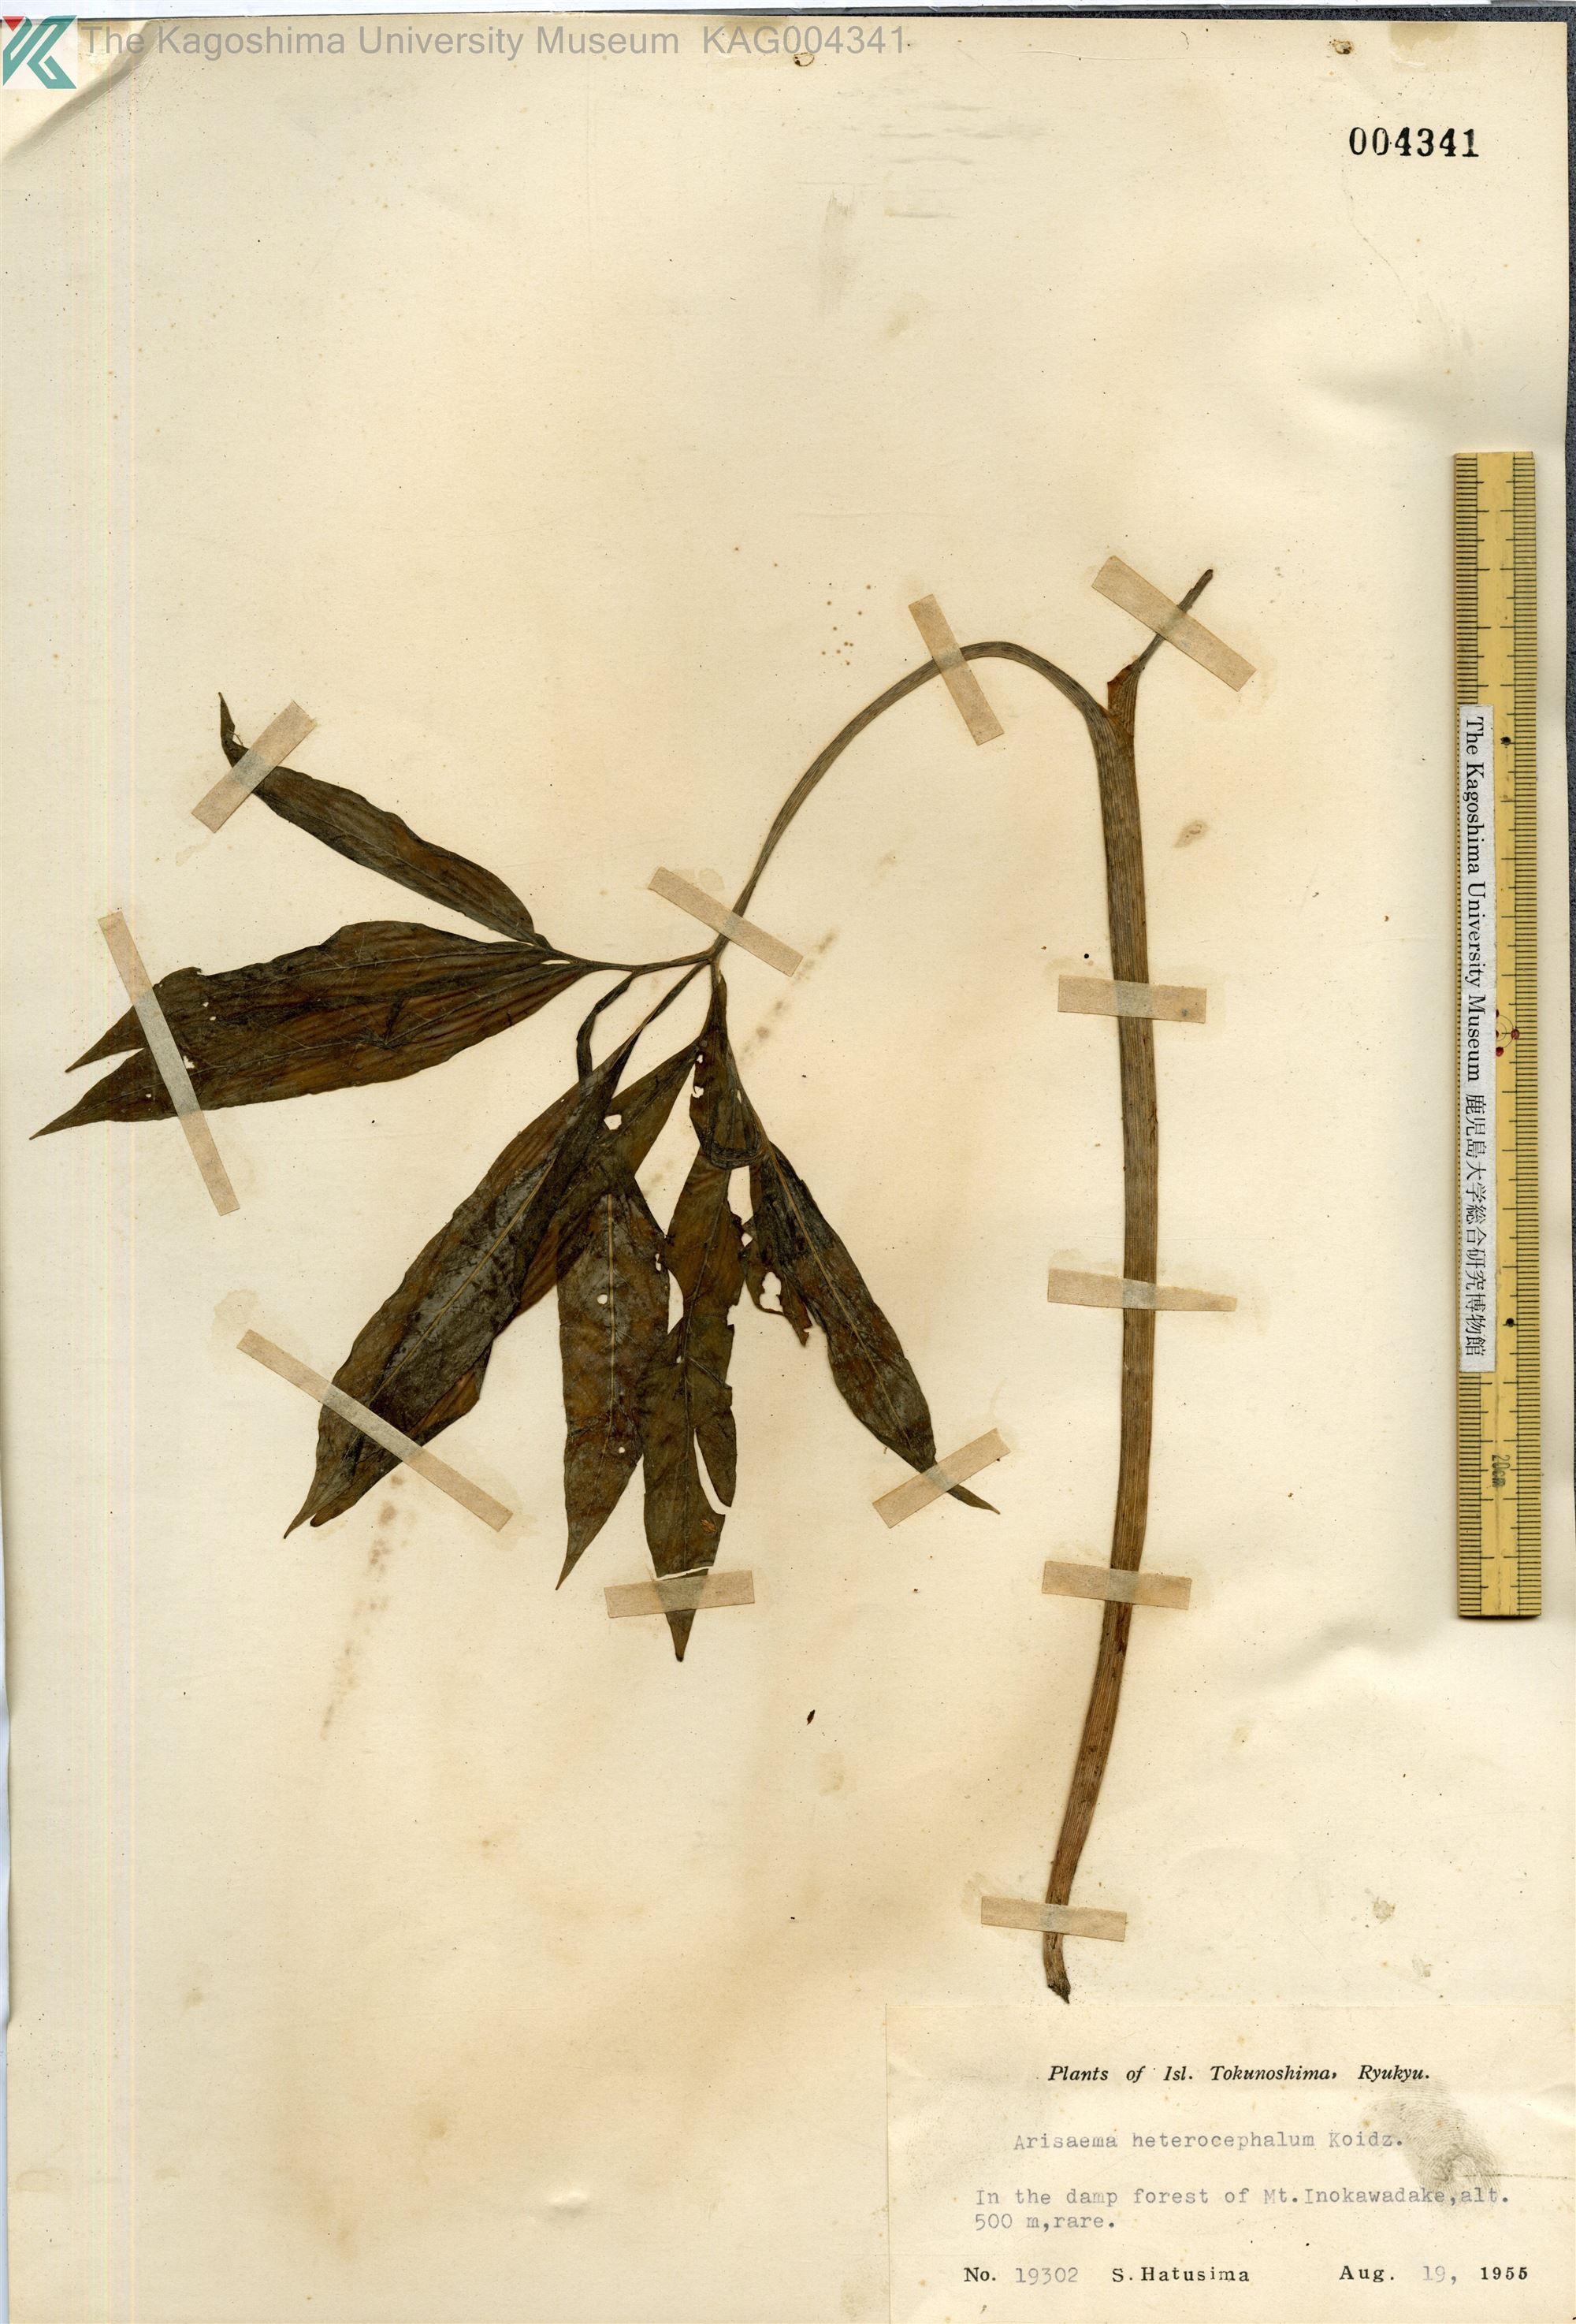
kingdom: Plantae
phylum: Tracheophyta
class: Liliopsida
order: Alismatales
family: Araceae
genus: Arisaema
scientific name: Arisaema heterocephalum
